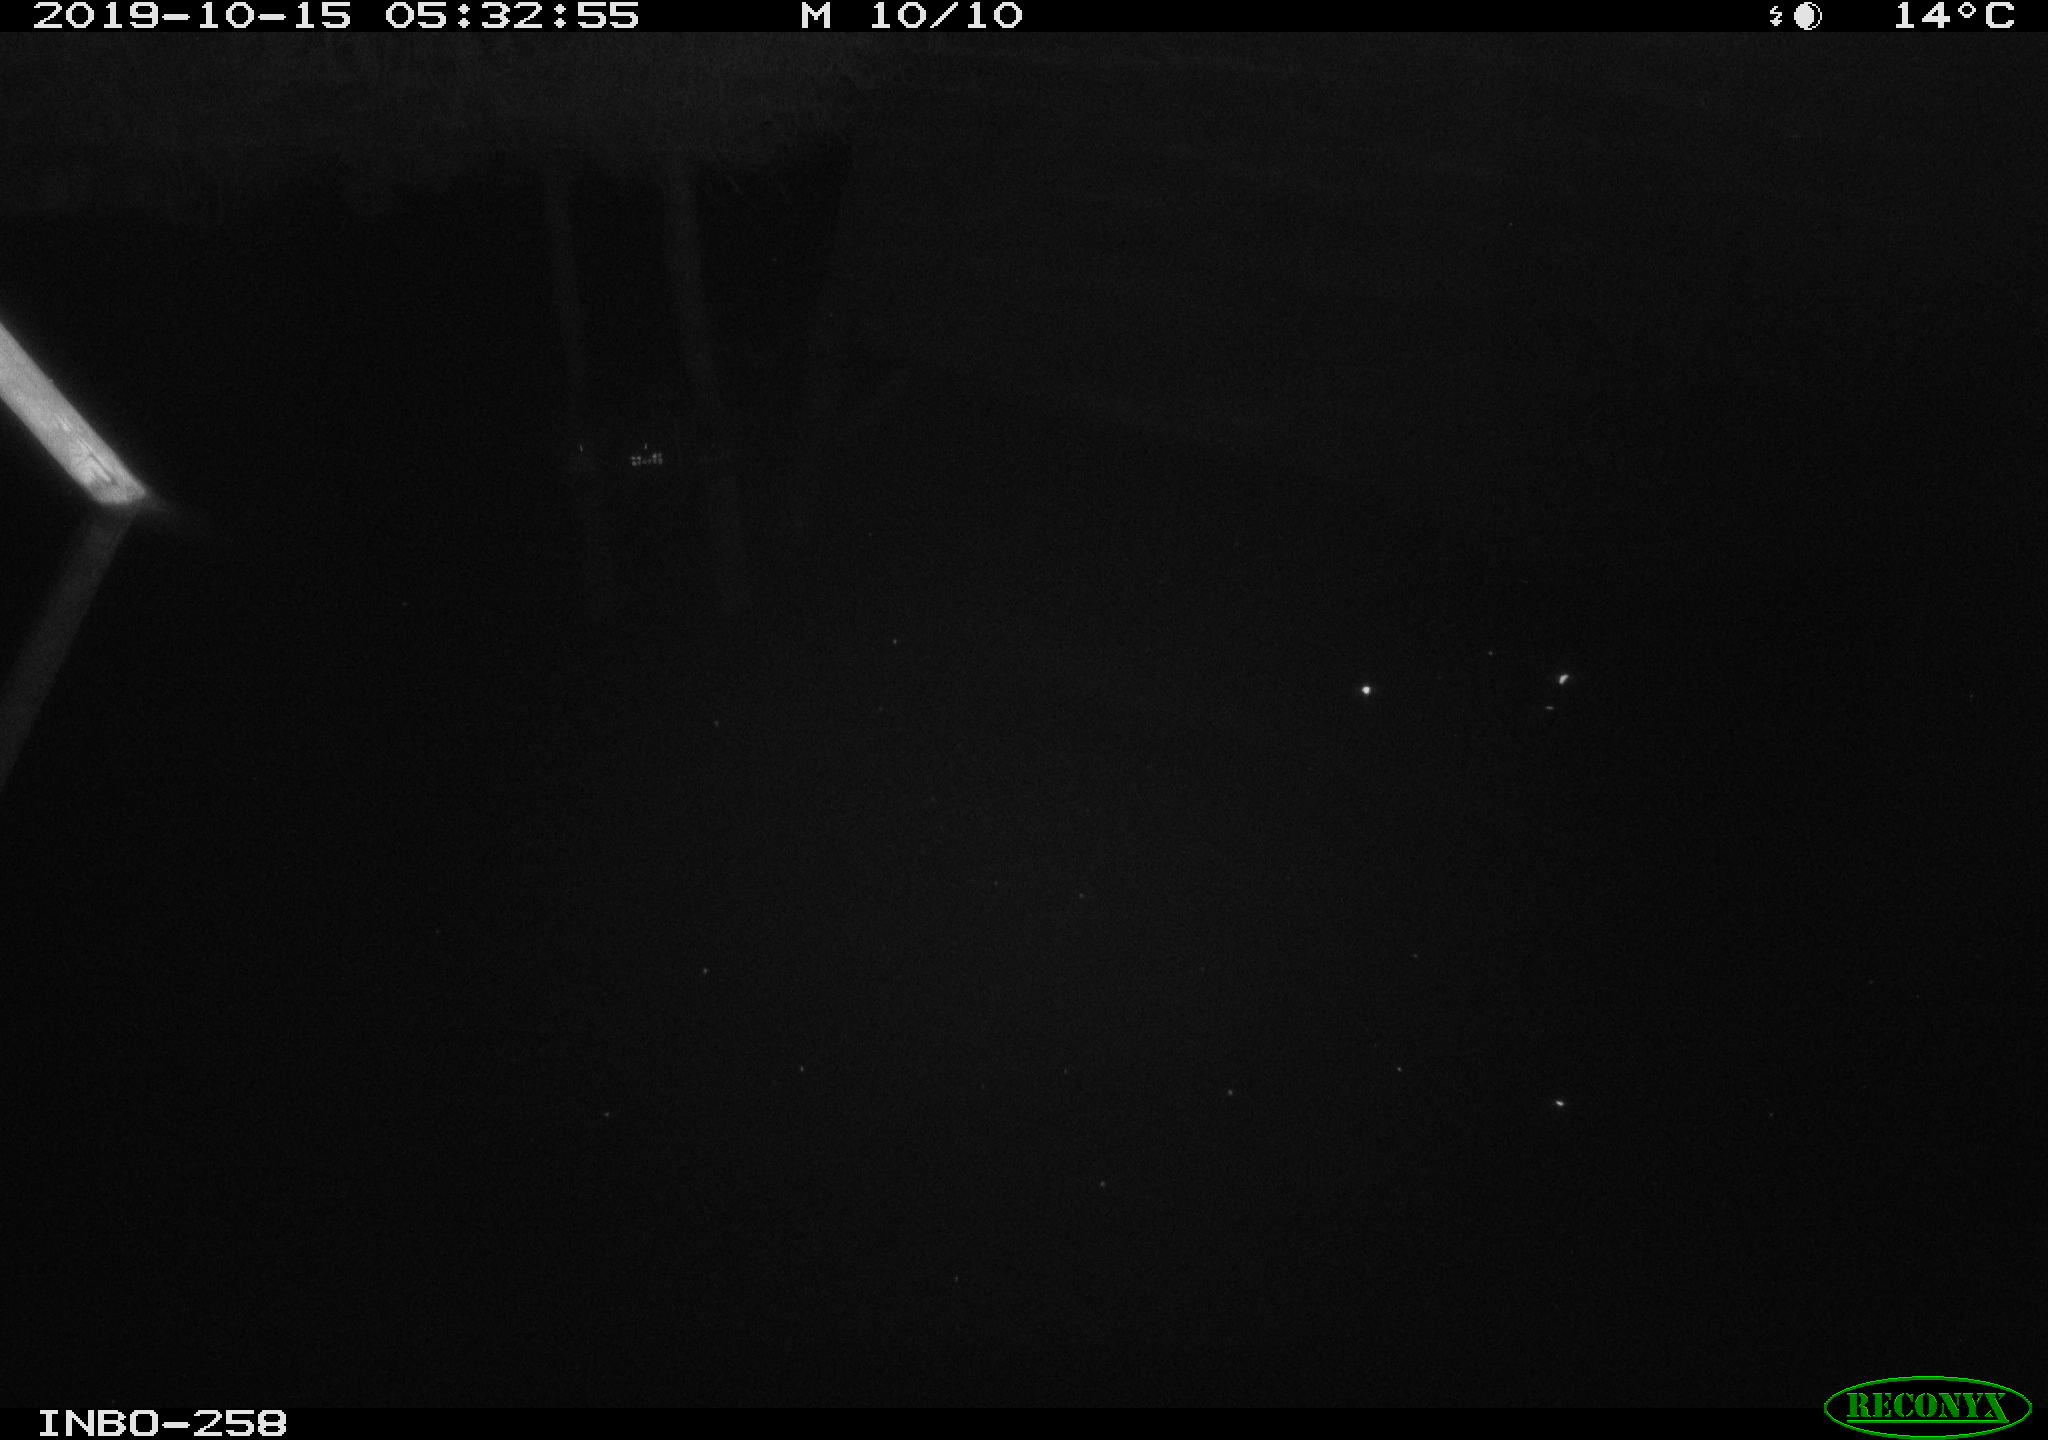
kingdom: Animalia
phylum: Chordata
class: Aves
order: Anseriformes
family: Anatidae
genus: Anas
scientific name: Anas platyrhynchos
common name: Mallard
